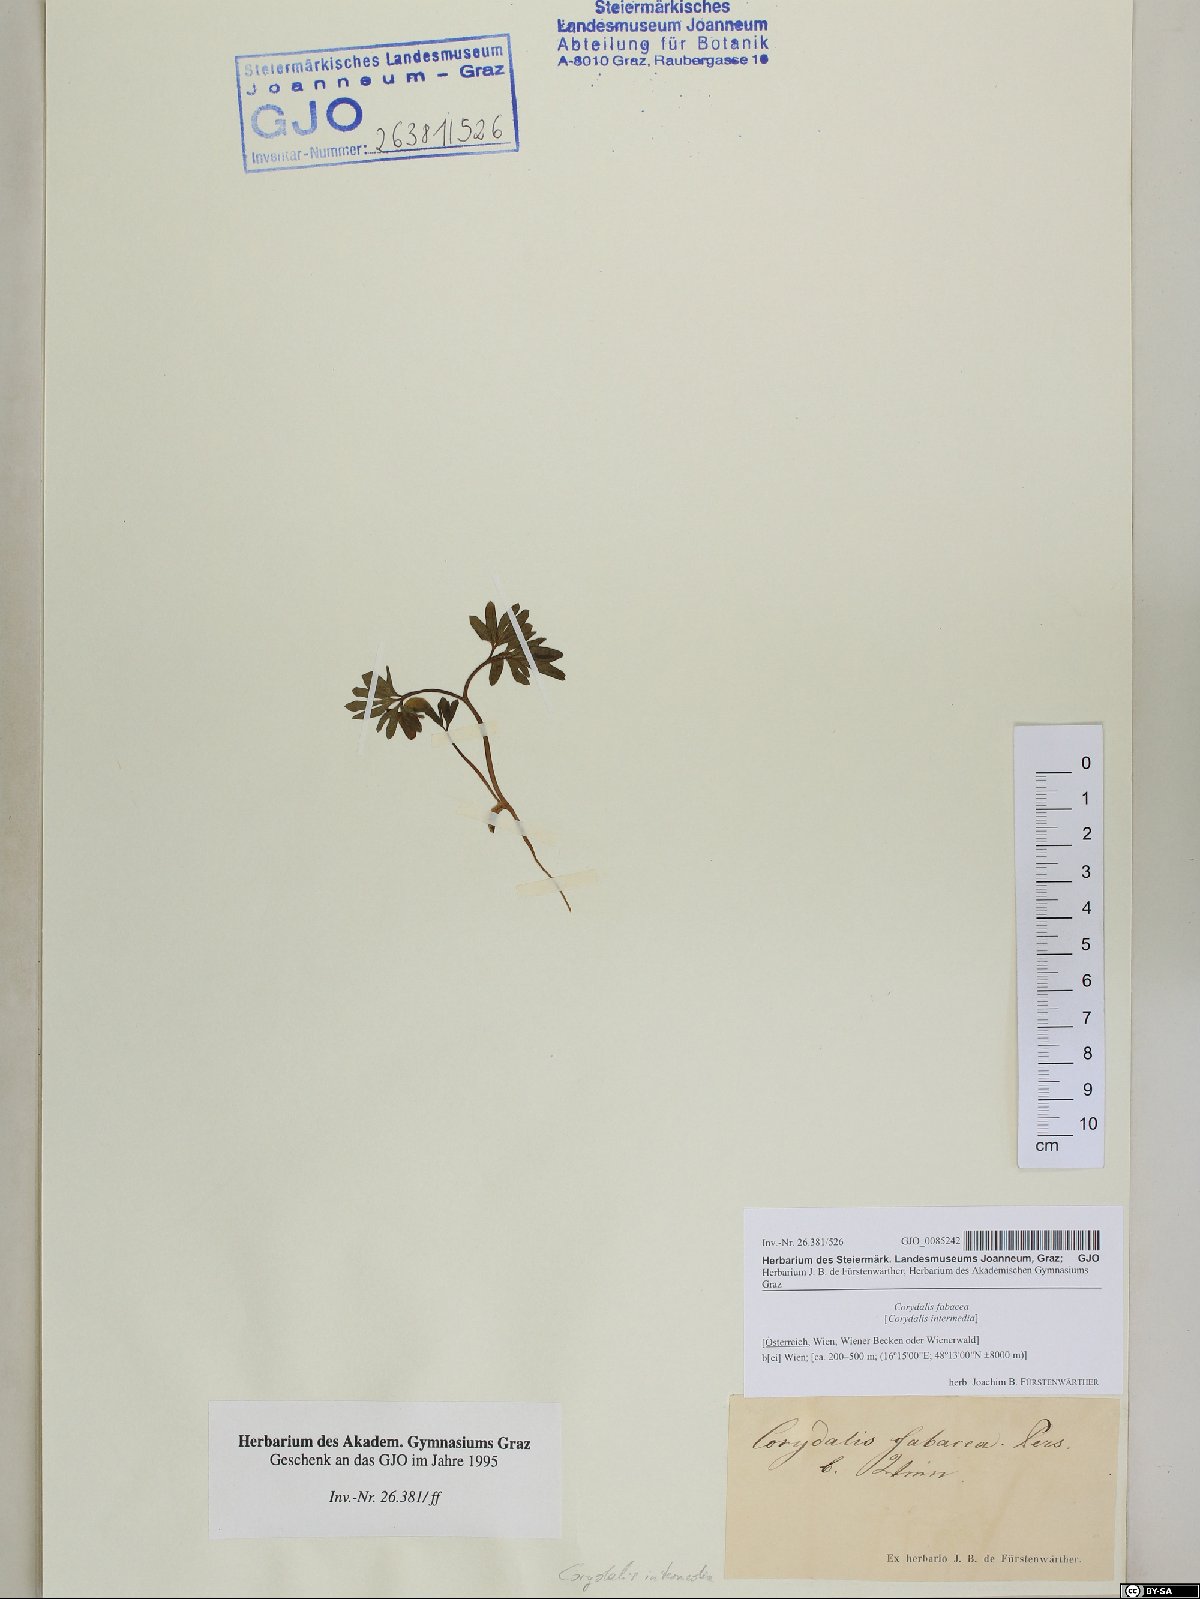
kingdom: Plantae
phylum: Tracheophyta
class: Magnoliopsida
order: Ranunculales
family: Papaveraceae
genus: Corydalis
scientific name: Corydalis intermedia
